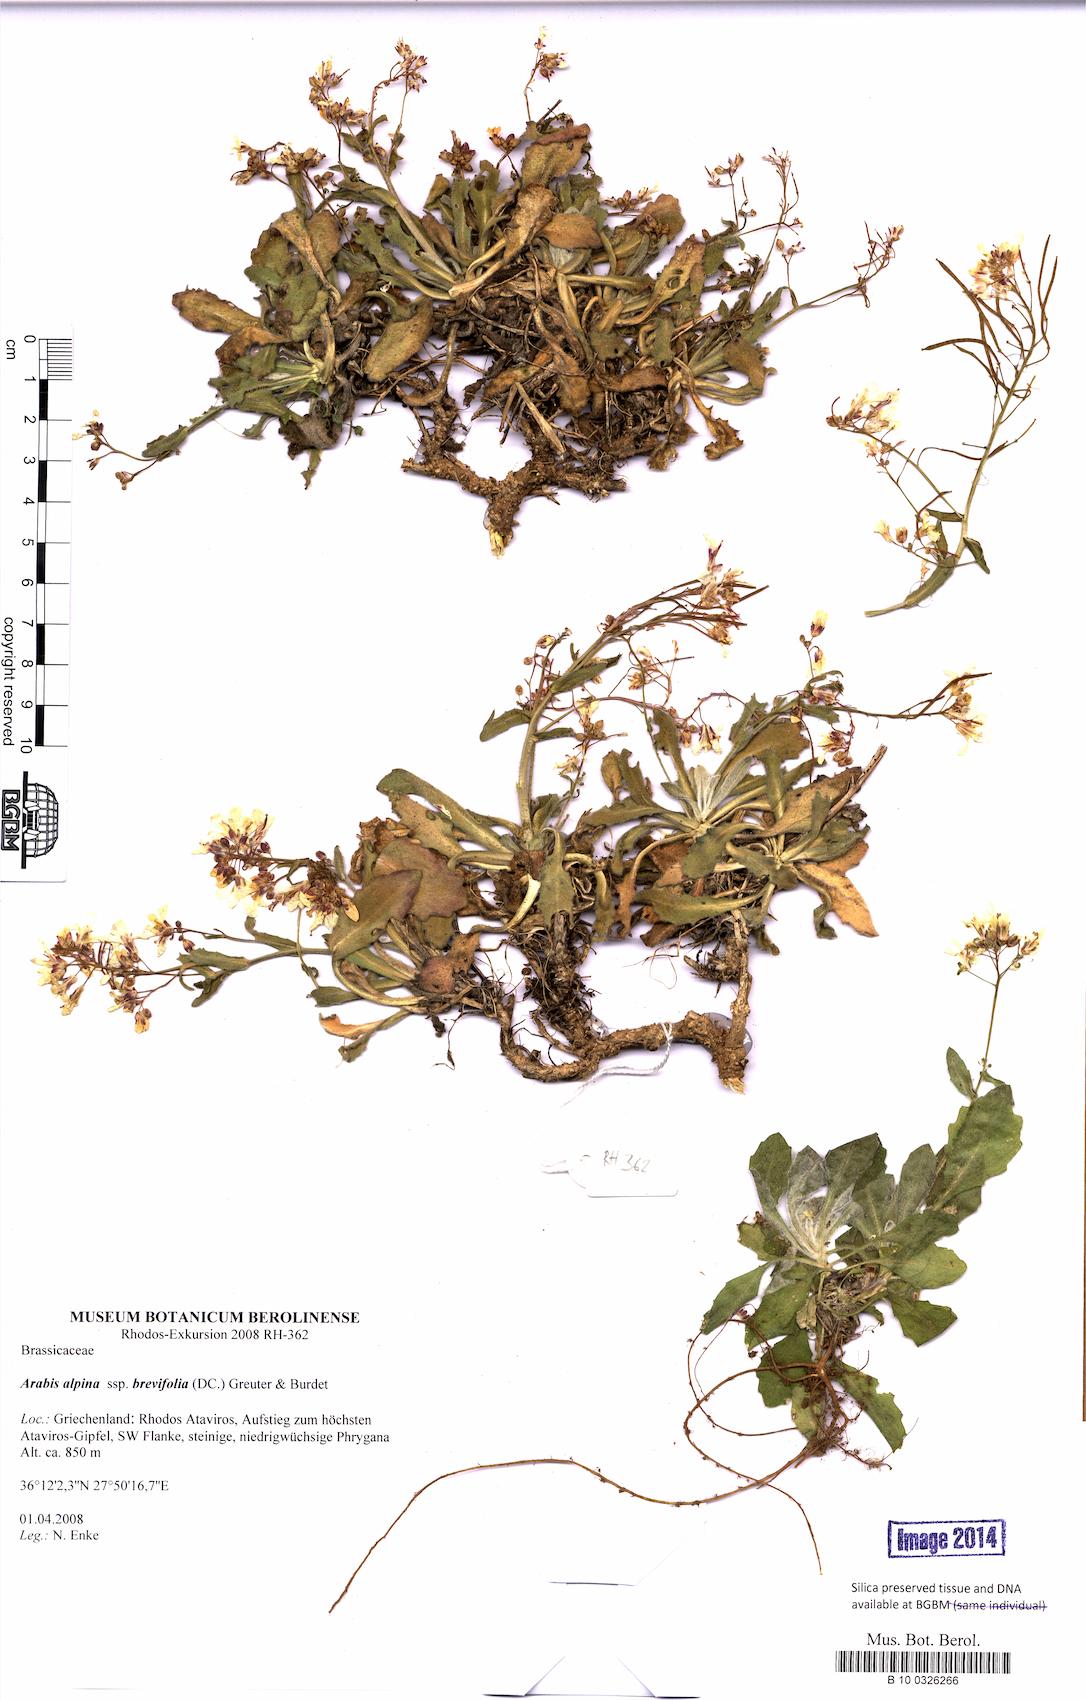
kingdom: Plantae
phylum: Tracheophyta
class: Magnoliopsida
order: Brassicales
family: Brassicaceae
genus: Arabis
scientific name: Arabis caucasica
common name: Gray rockcress
